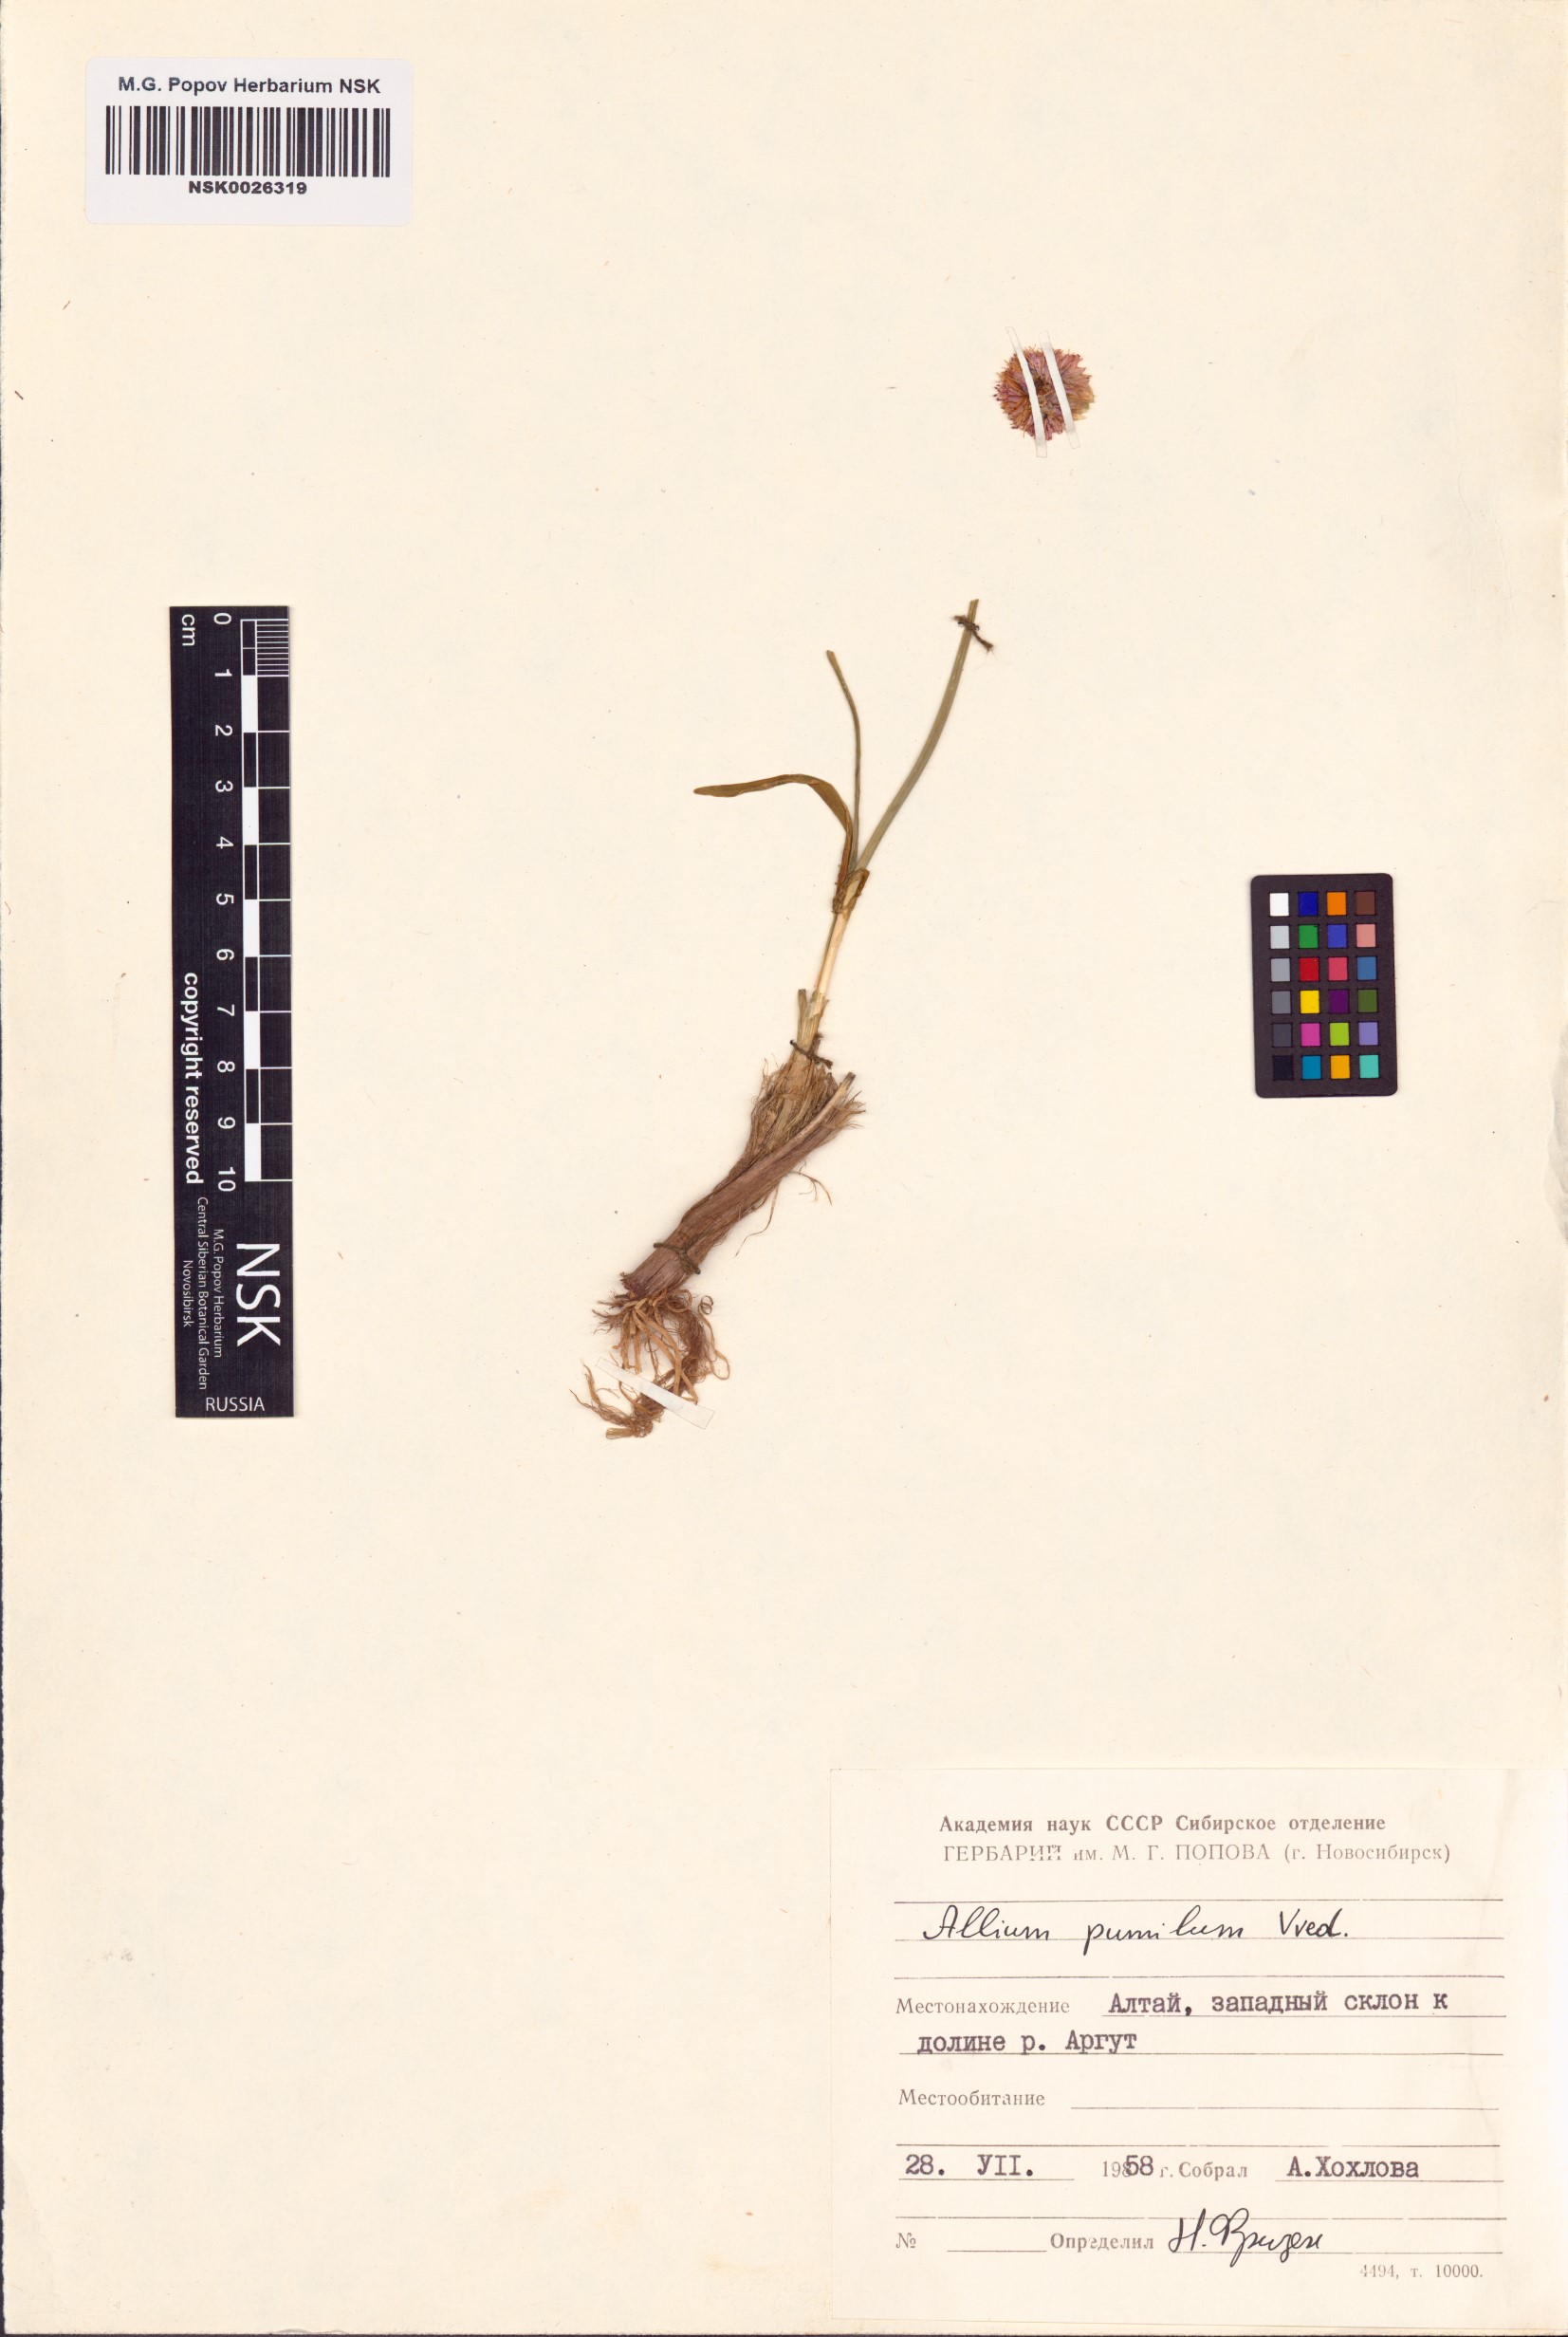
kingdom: Plantae
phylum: Tracheophyta
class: Liliopsida
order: Asparagales
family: Amaryllidaceae
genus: Allium
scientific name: Allium pumilum
